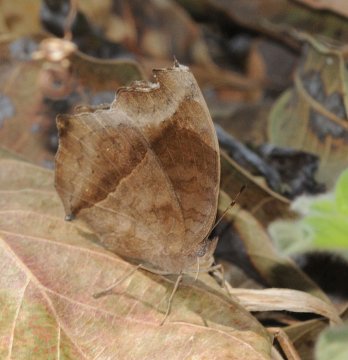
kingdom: Animalia
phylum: Arthropoda
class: Insecta
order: Lepidoptera
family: Nymphalidae
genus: Junonia
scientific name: Junonia natalica
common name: Natal Pansy
